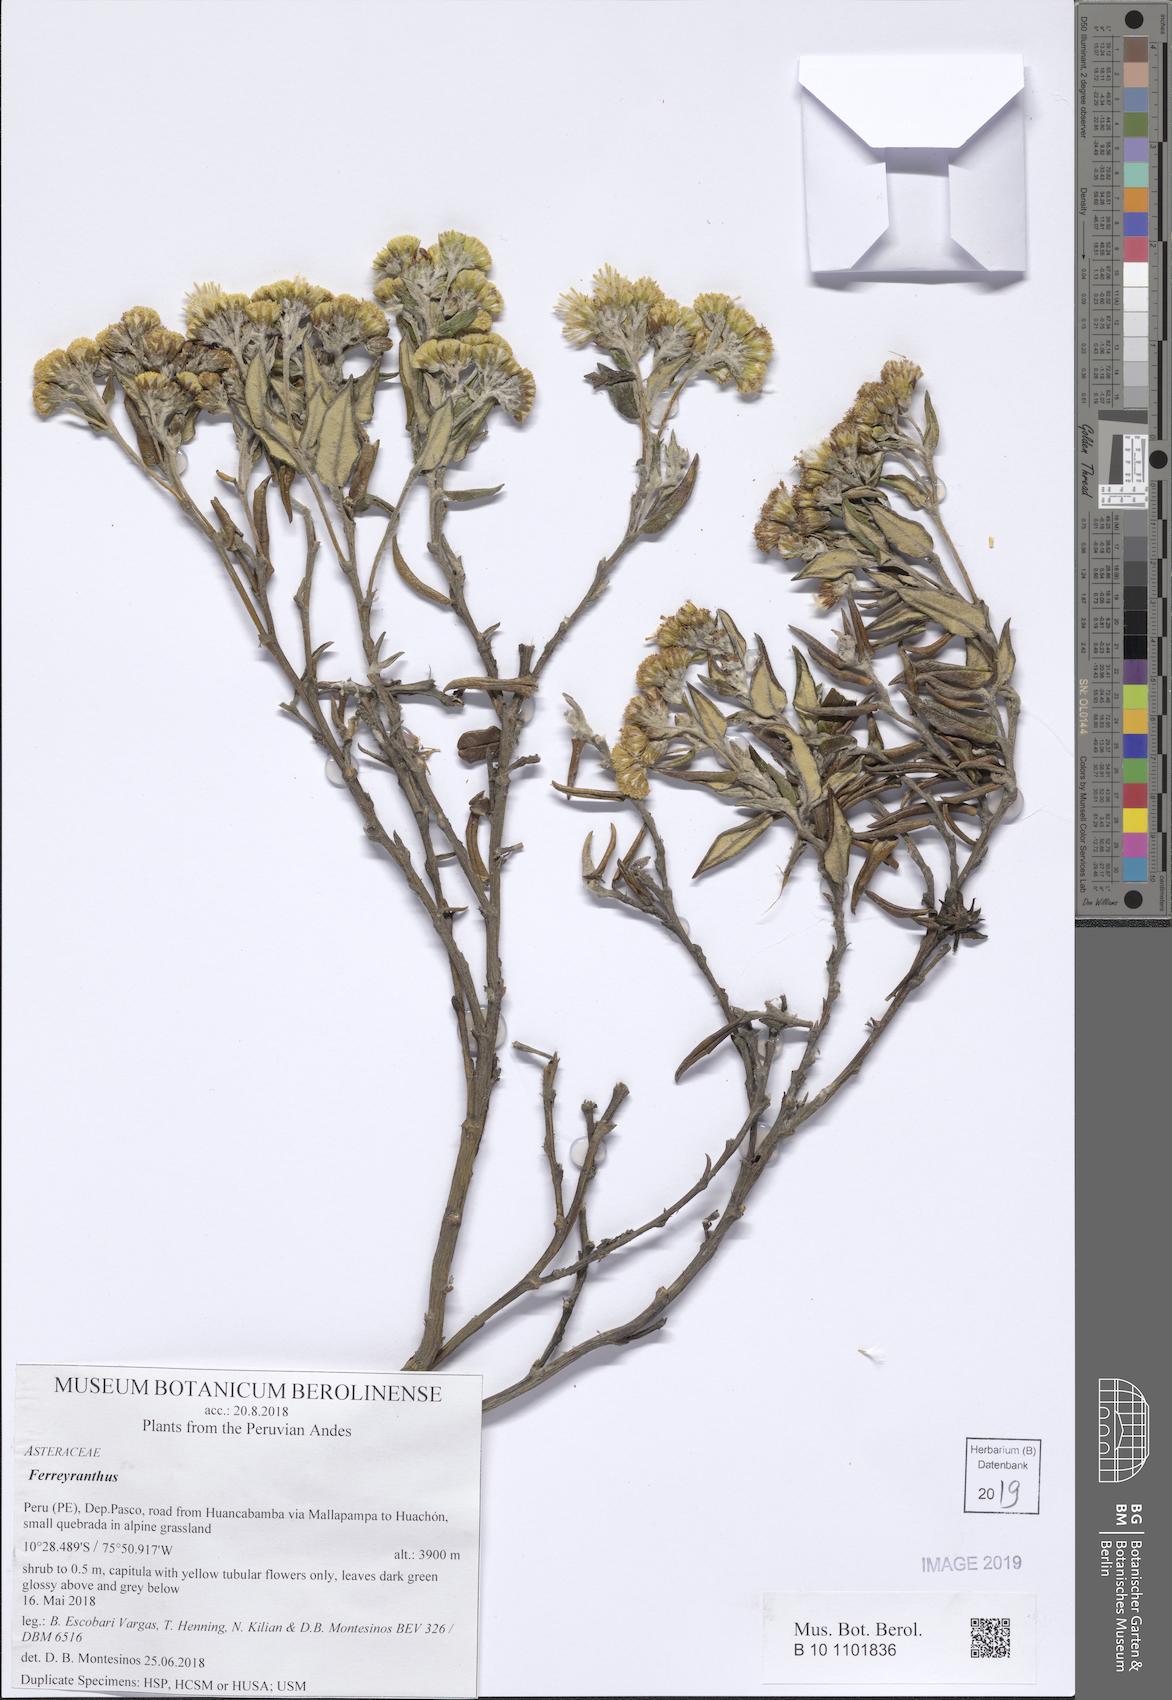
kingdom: Plantae
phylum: Tracheophyta
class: Magnoliopsida
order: Asterales
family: Asteraceae
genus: Ferreyranthus
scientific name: Ferreyranthus
